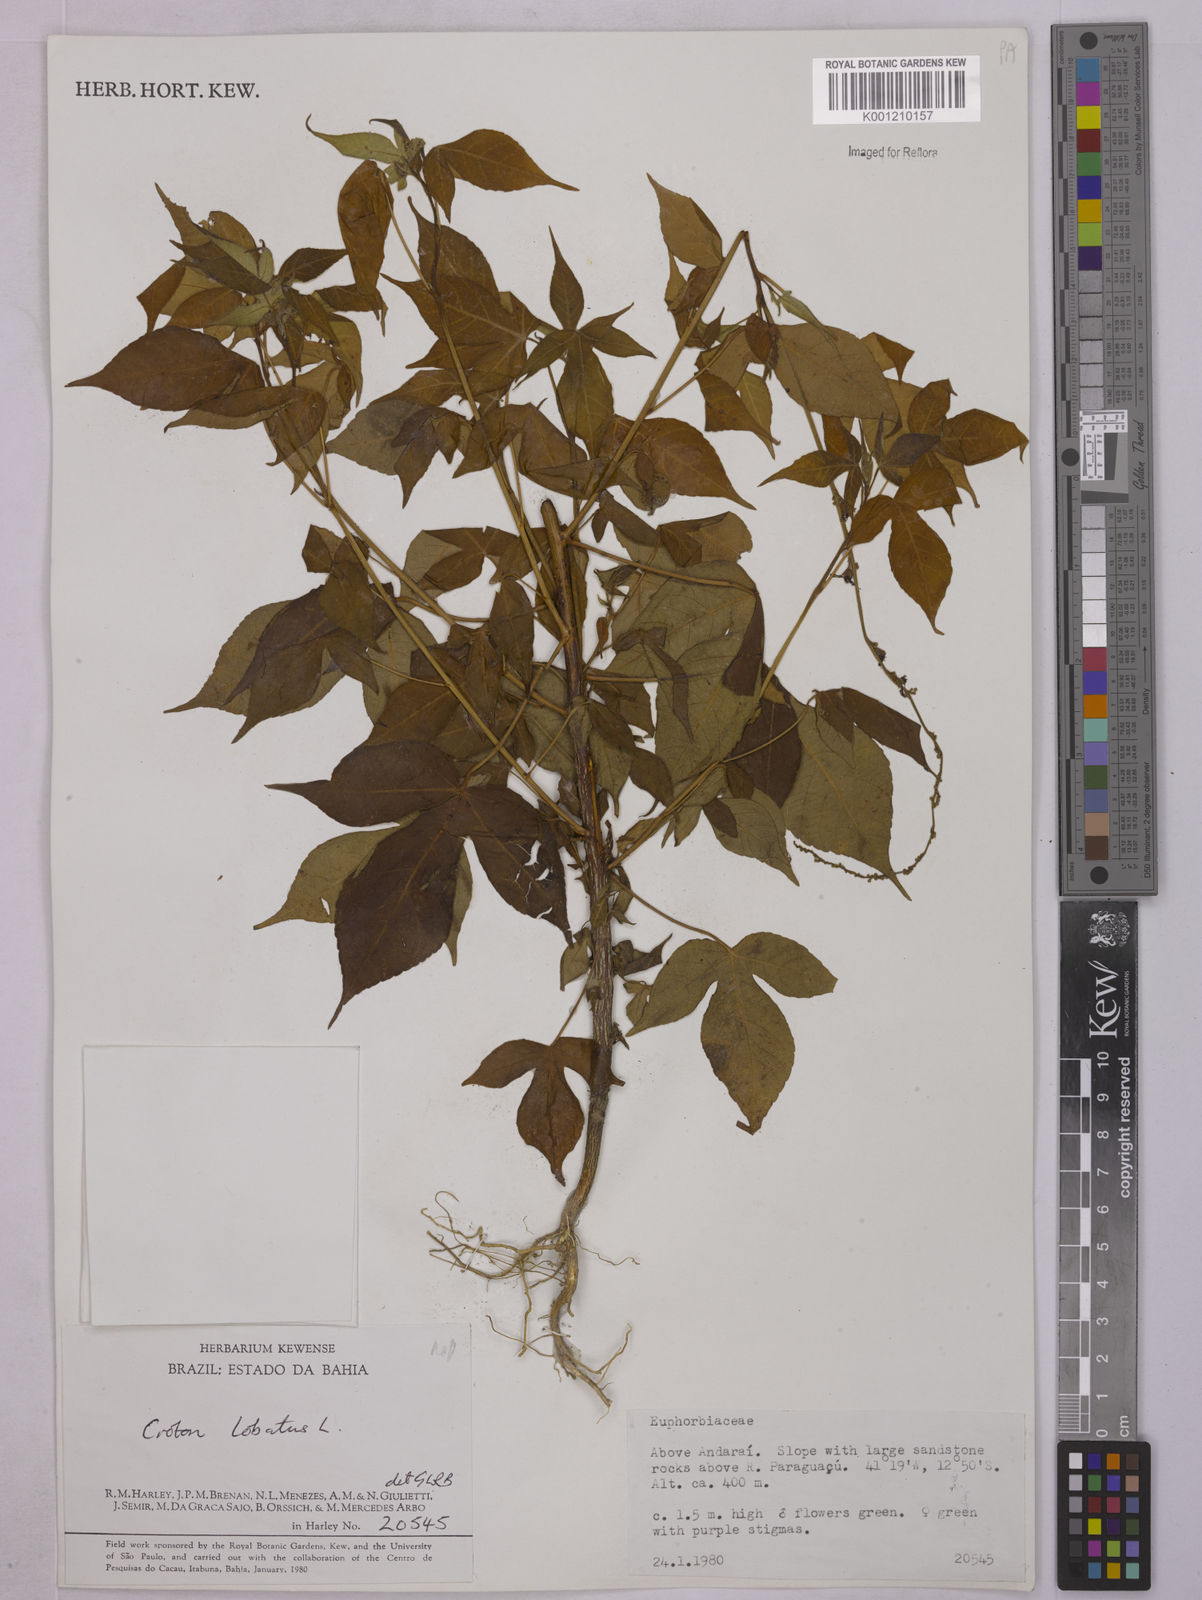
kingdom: Plantae
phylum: Tracheophyta
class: Magnoliopsida
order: Malpighiales
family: Euphorbiaceae
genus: Astraea
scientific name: Astraea lobata
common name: Lobed croton
